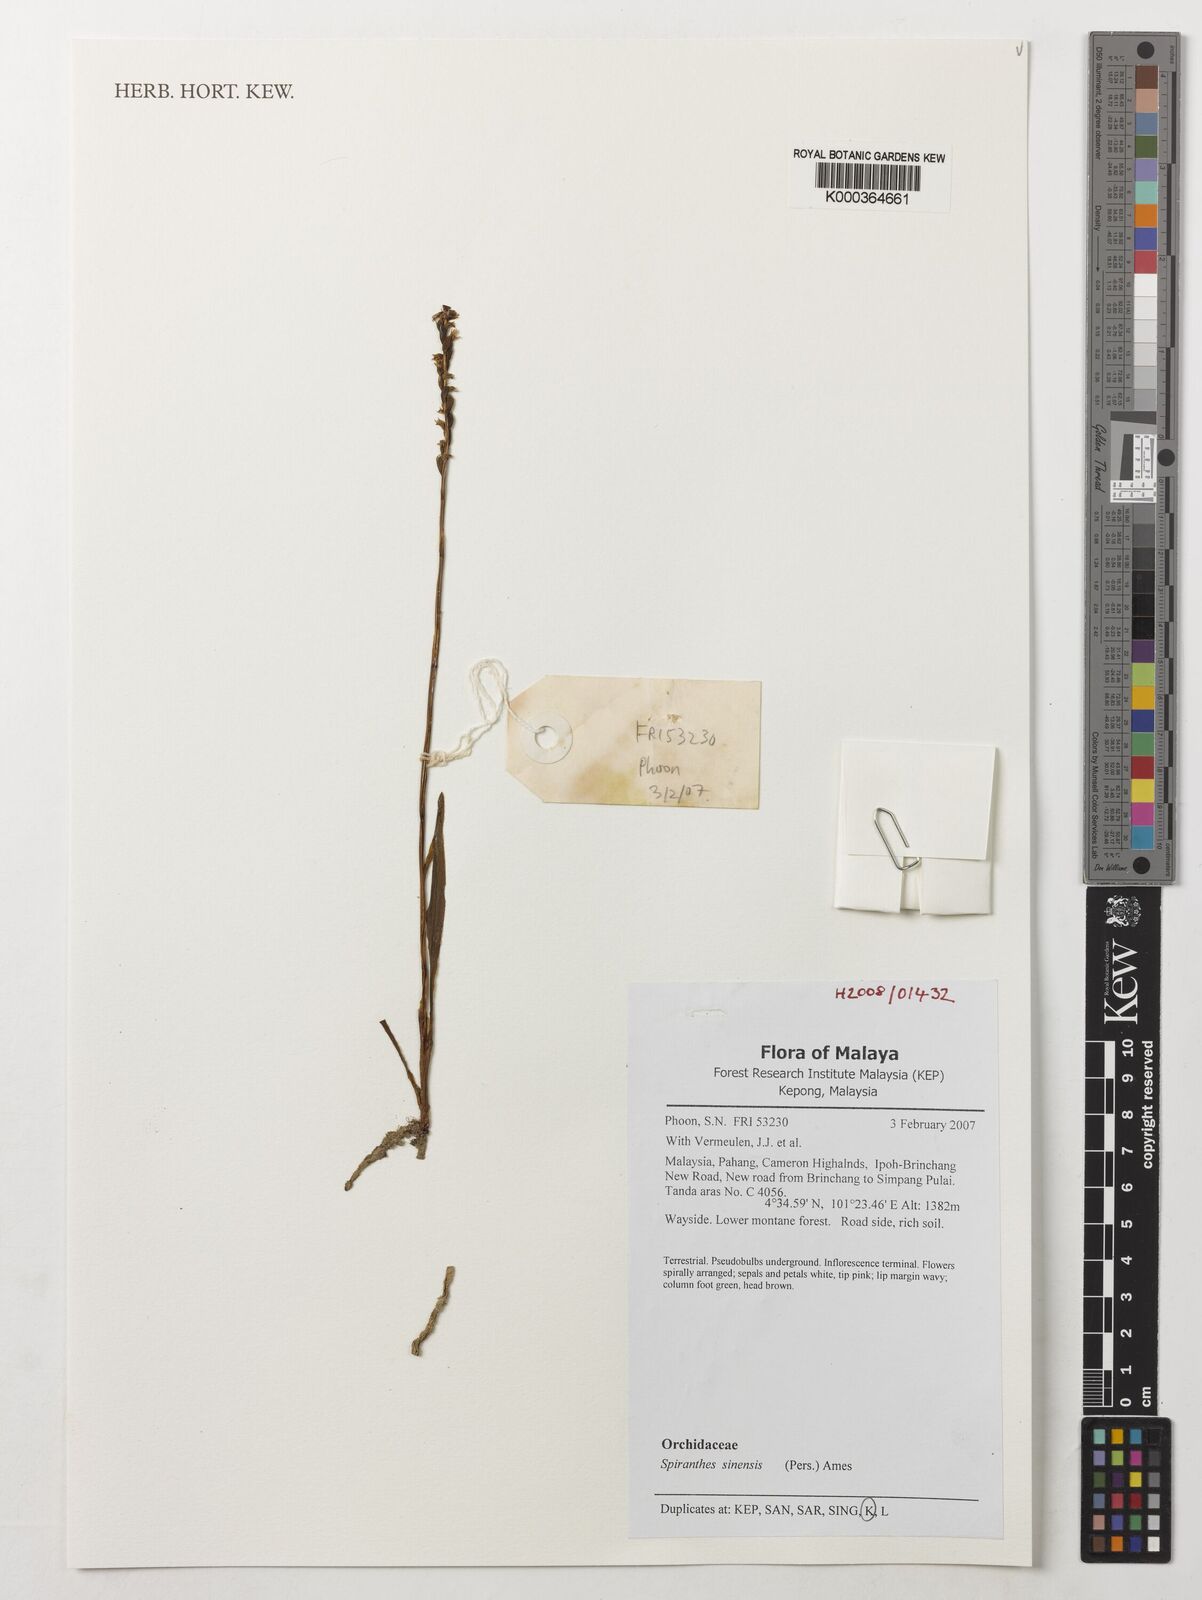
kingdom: Plantae
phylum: Tracheophyta
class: Liliopsida
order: Asparagales
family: Orchidaceae
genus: Spiranthes
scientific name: Spiranthes sinensis
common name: Chinese spiranthes
